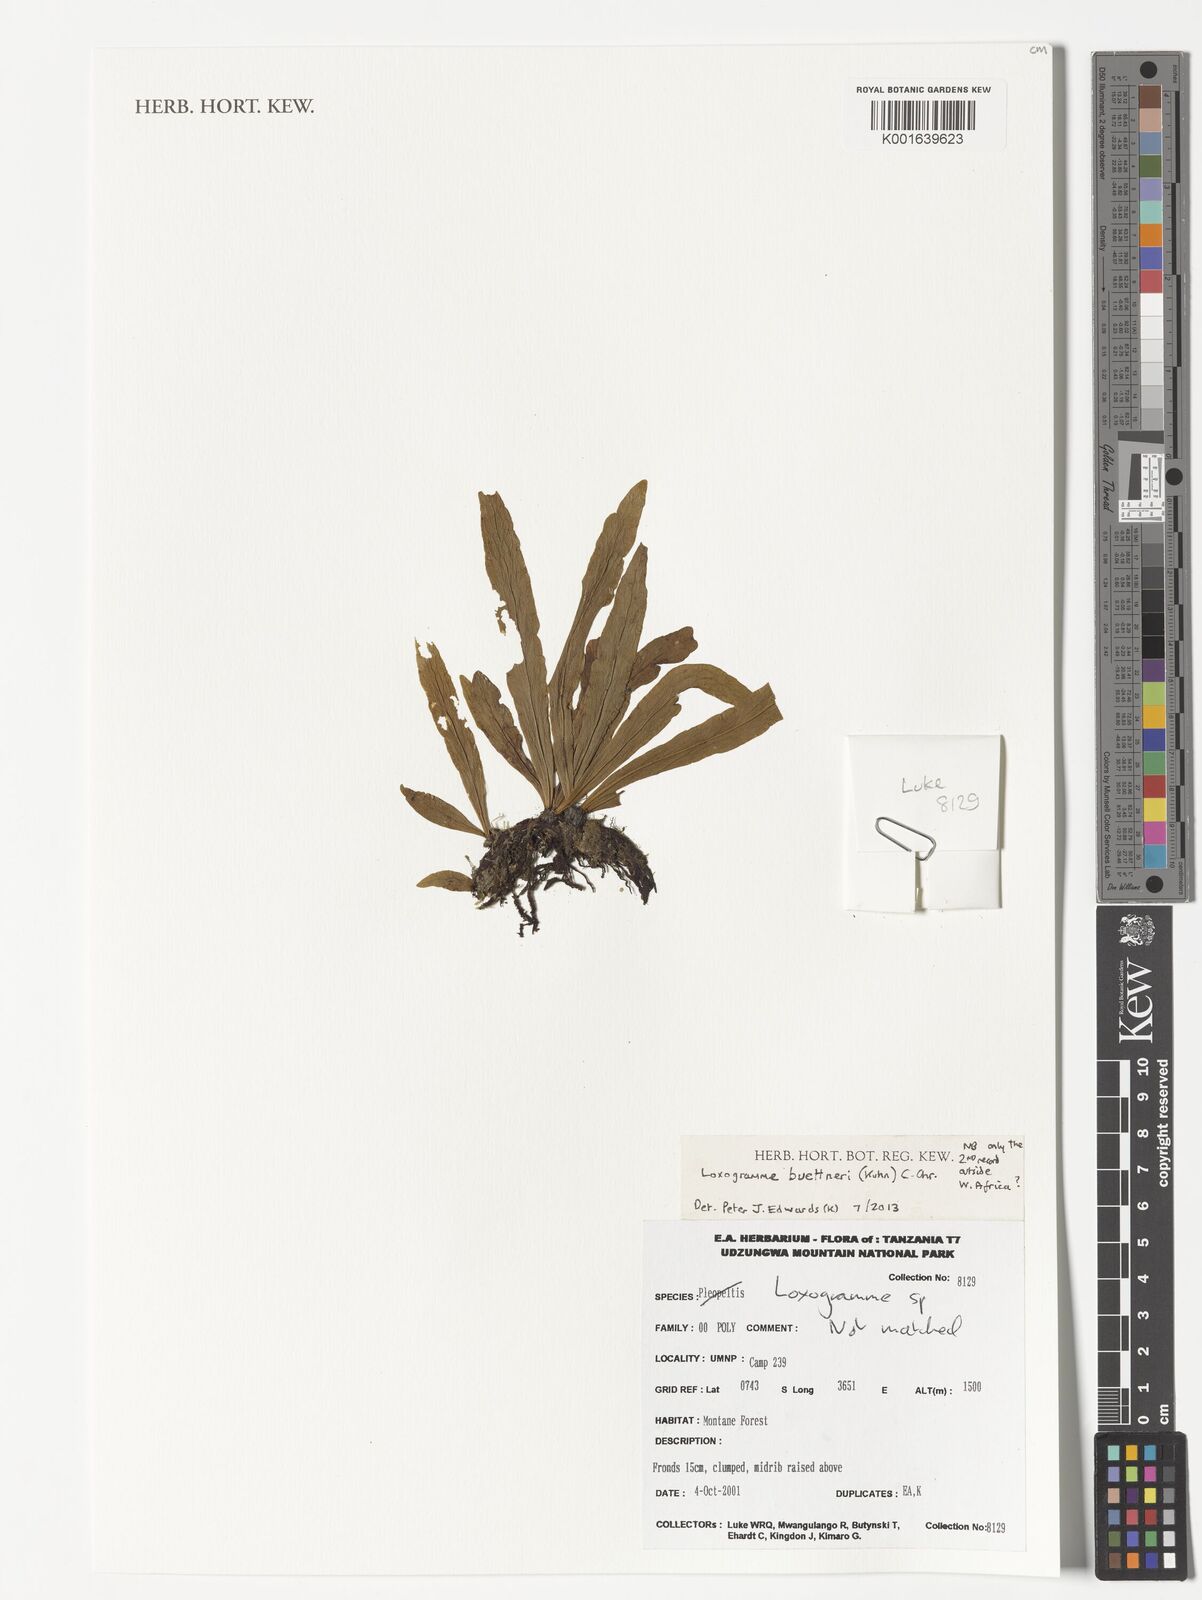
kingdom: Plantae
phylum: Tracheophyta
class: Polypodiopsida
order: Polypodiales
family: Polypodiaceae
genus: Loxogramme
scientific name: Loxogramme buettneri
